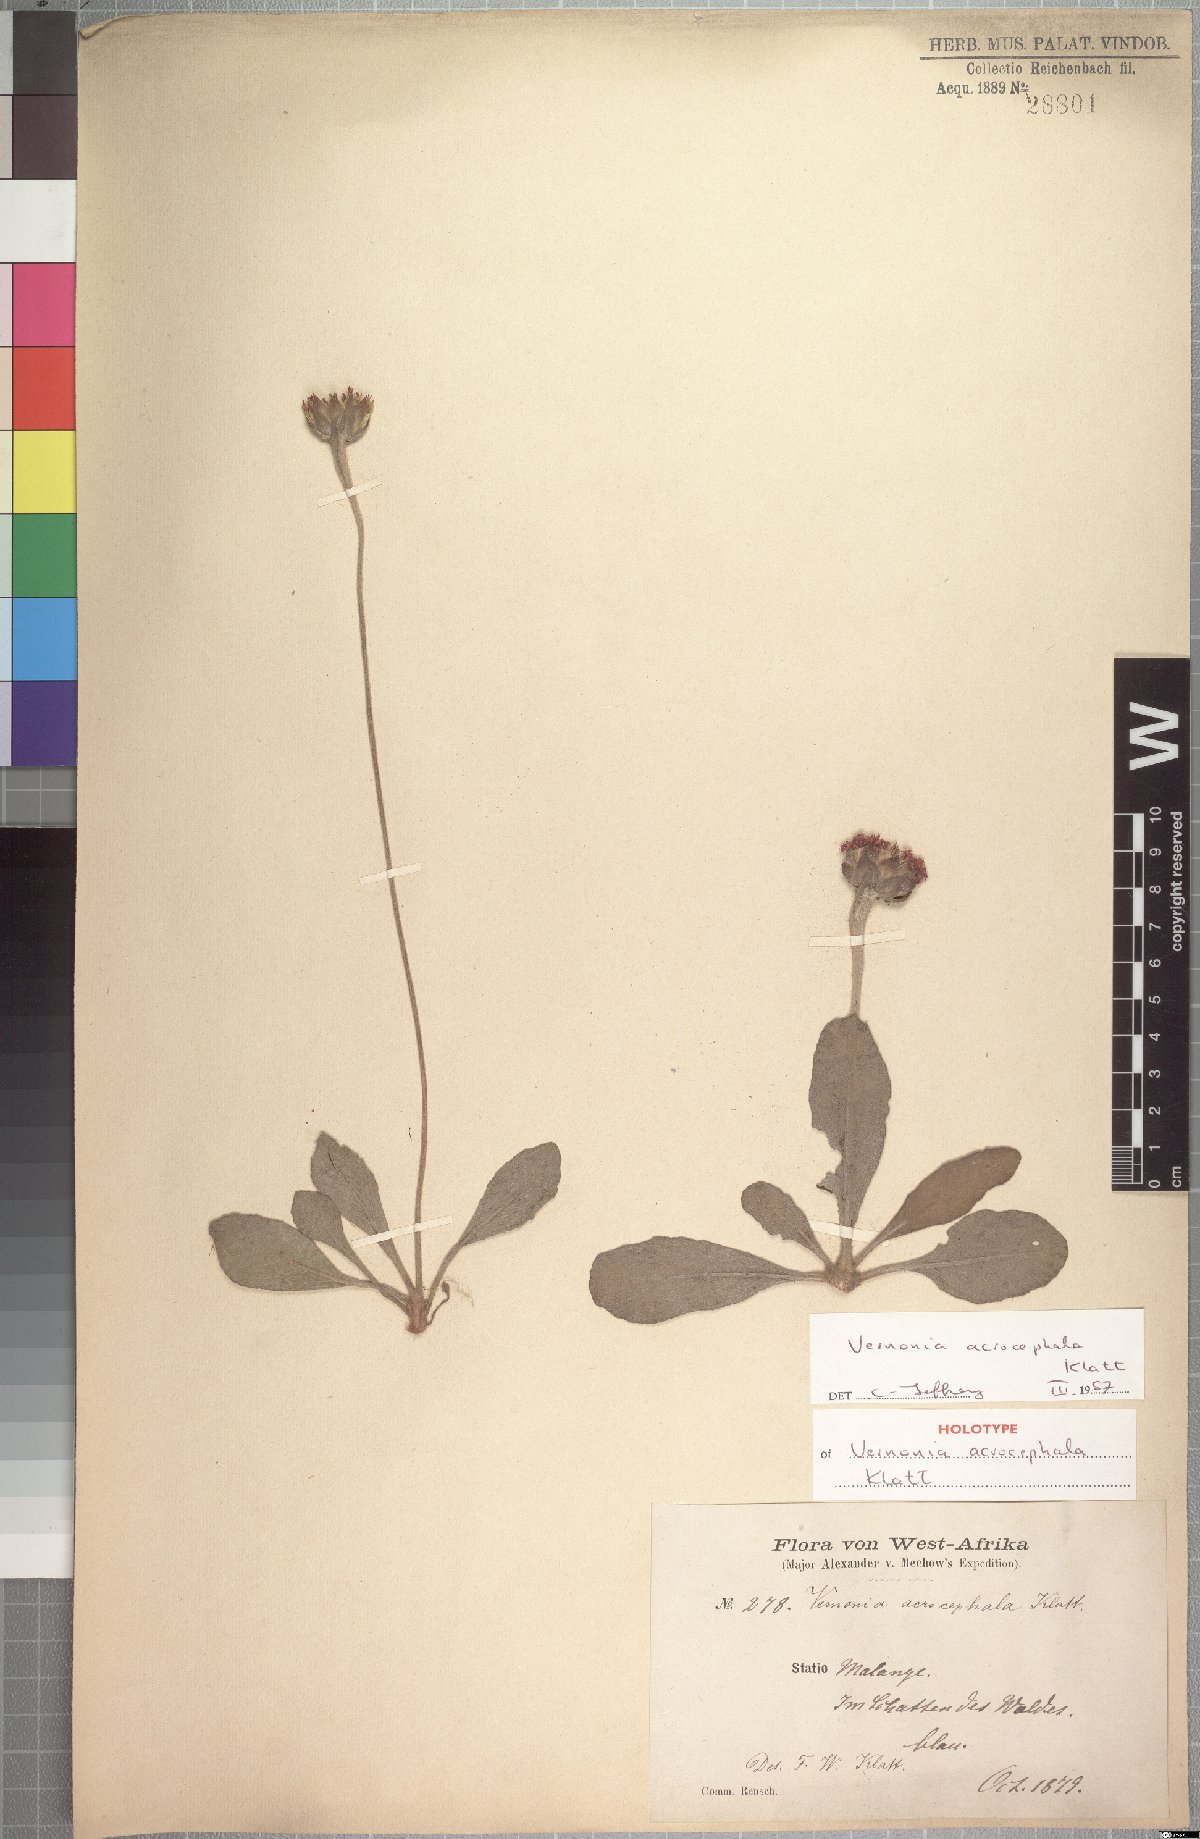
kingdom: Plantae
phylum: Tracheophyta
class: Magnoliopsida
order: Asterales
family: Asteraceae
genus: Vernonella
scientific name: Vernonella acrocephala
